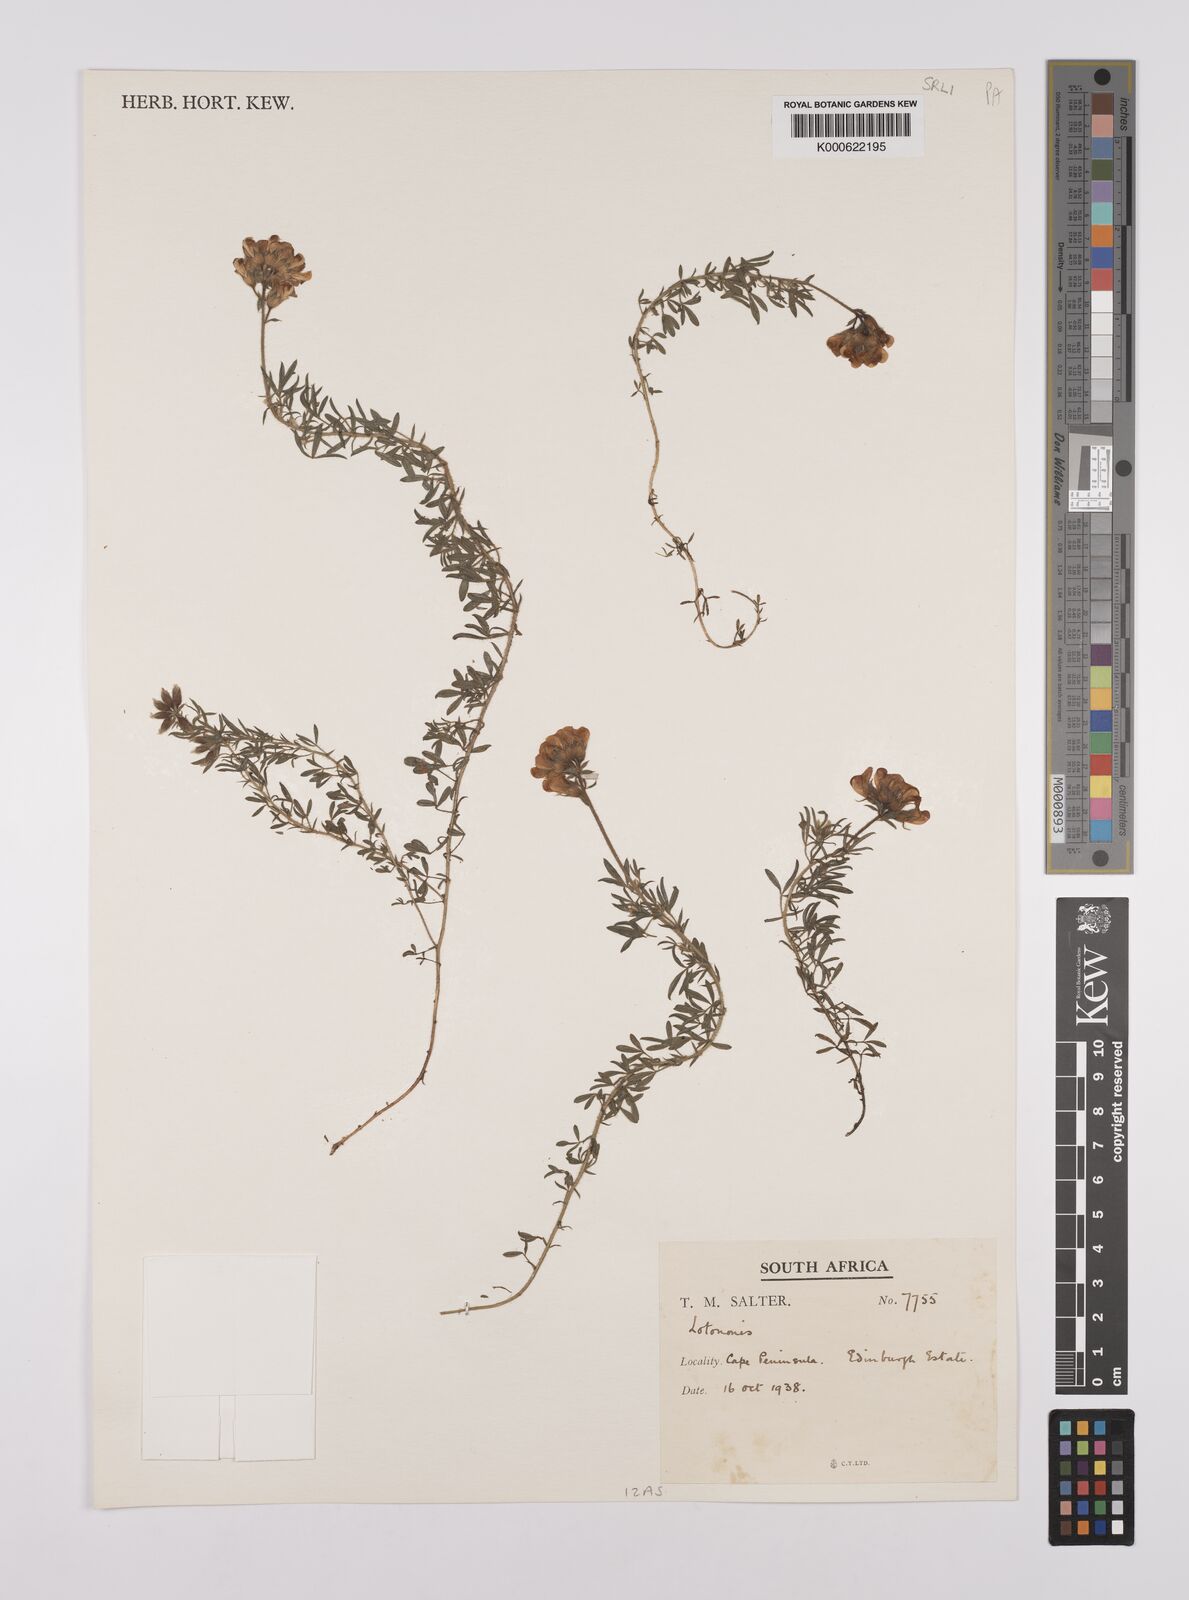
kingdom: Plantae
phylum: Tracheophyta
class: Magnoliopsida
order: Fabales
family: Fabaceae
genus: Lotononis
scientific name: Lotononis involucrata
